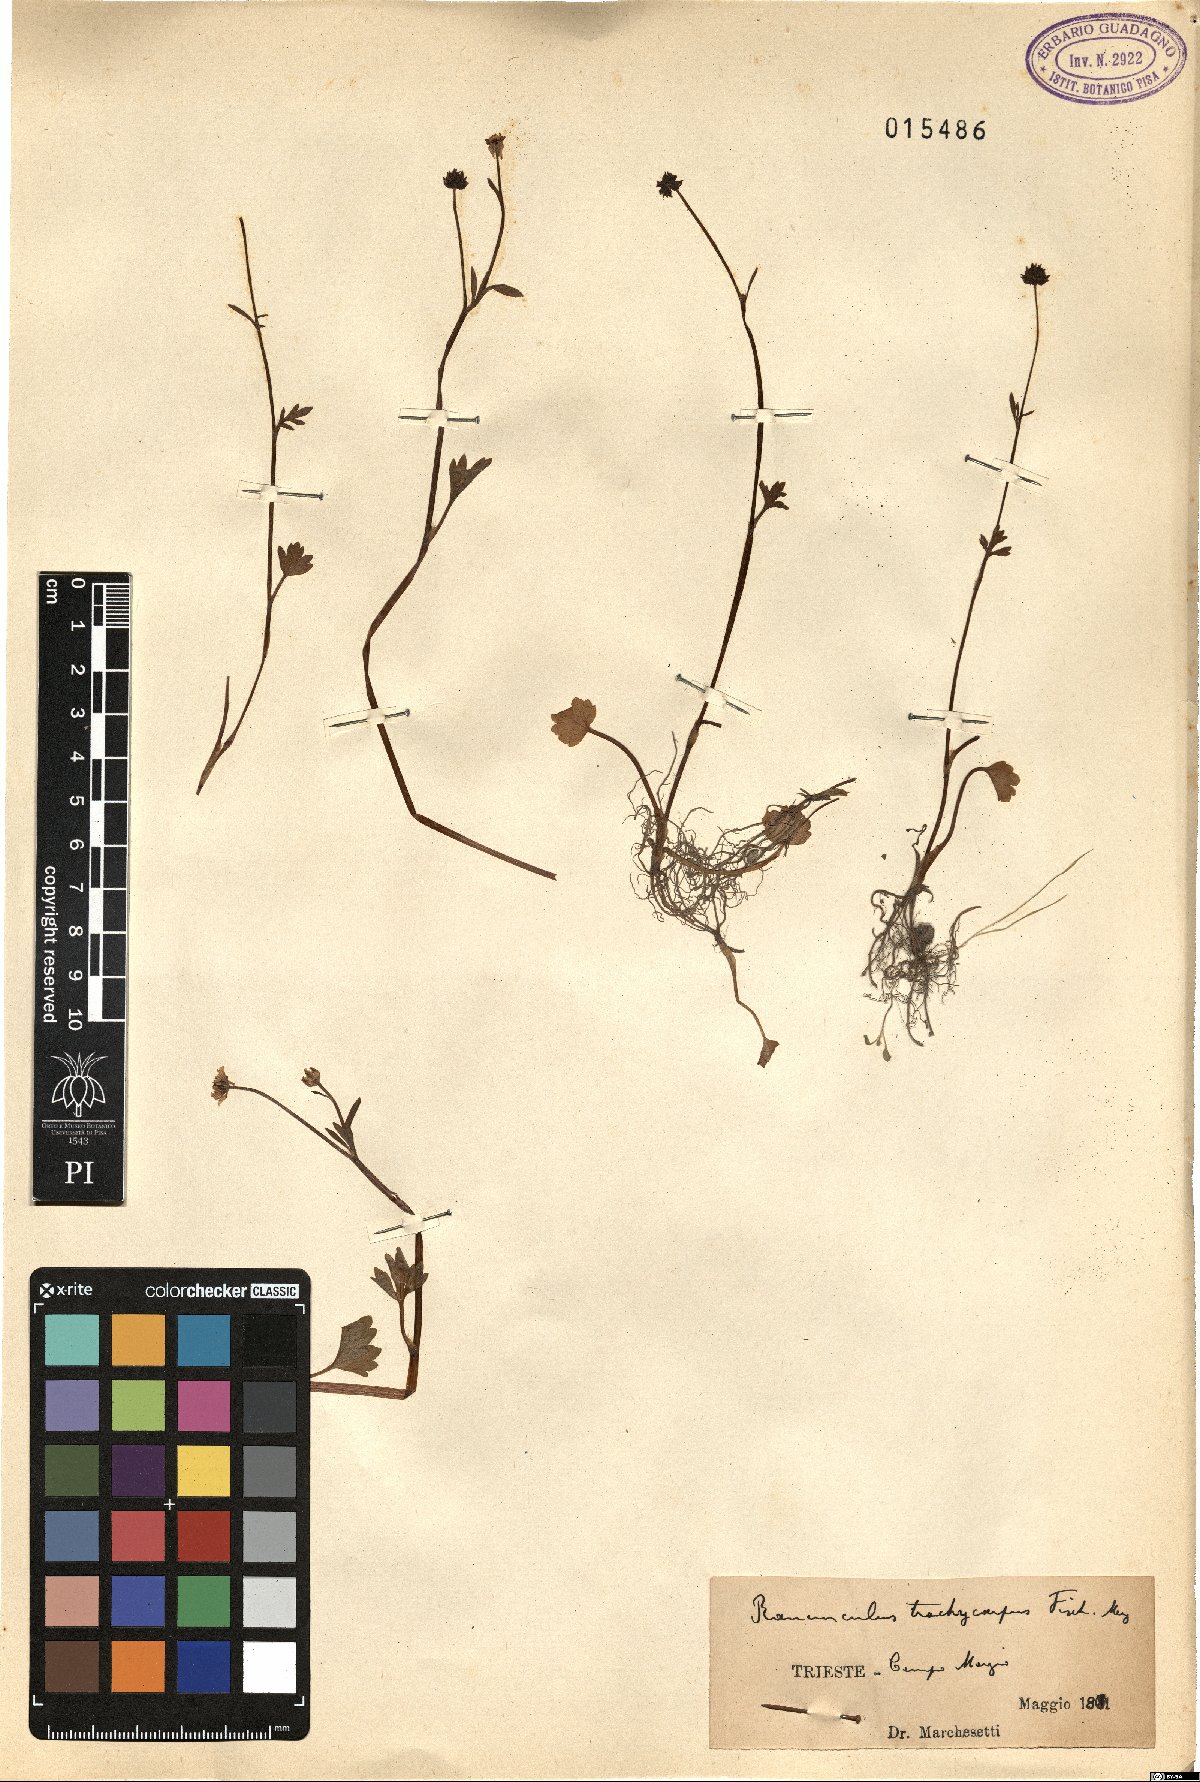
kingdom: Plantae
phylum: Tracheophyta
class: Magnoliopsida
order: Ranunculales
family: Ranunculaceae
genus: Ranunculus
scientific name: Ranunculus marginatus
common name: St. martin's buttercup
